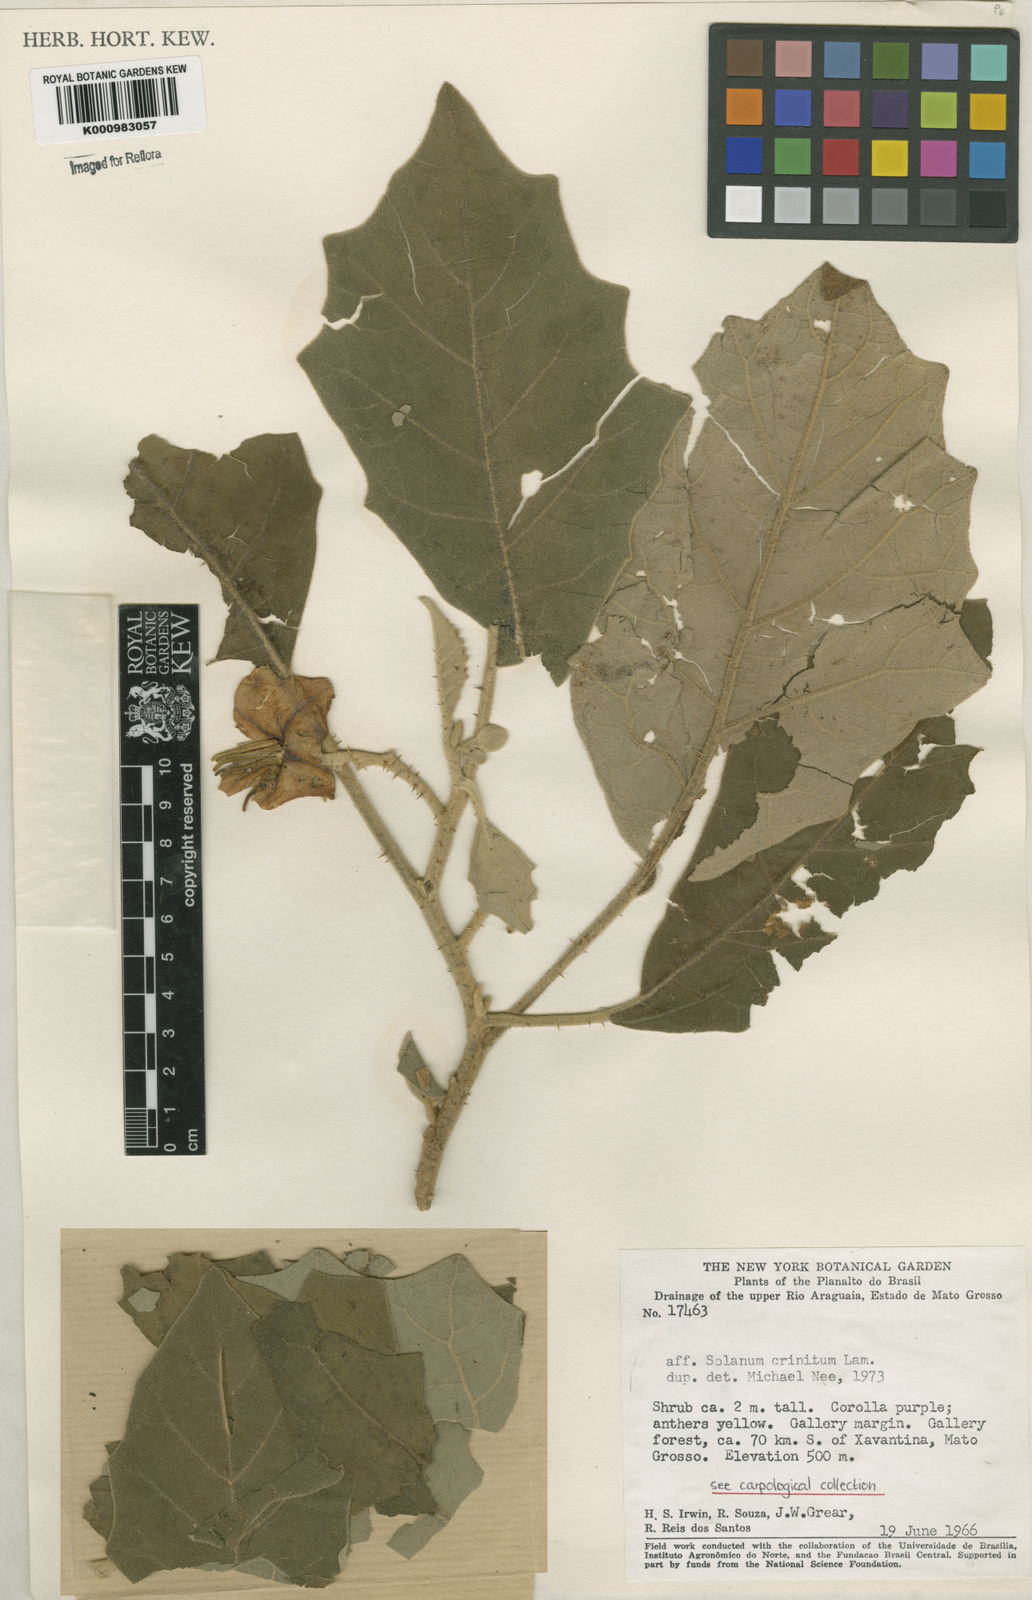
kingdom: Plantae
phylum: Tracheophyta
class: Magnoliopsida
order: Solanales
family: Solanaceae
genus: Solanum
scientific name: Solanum crinitum
